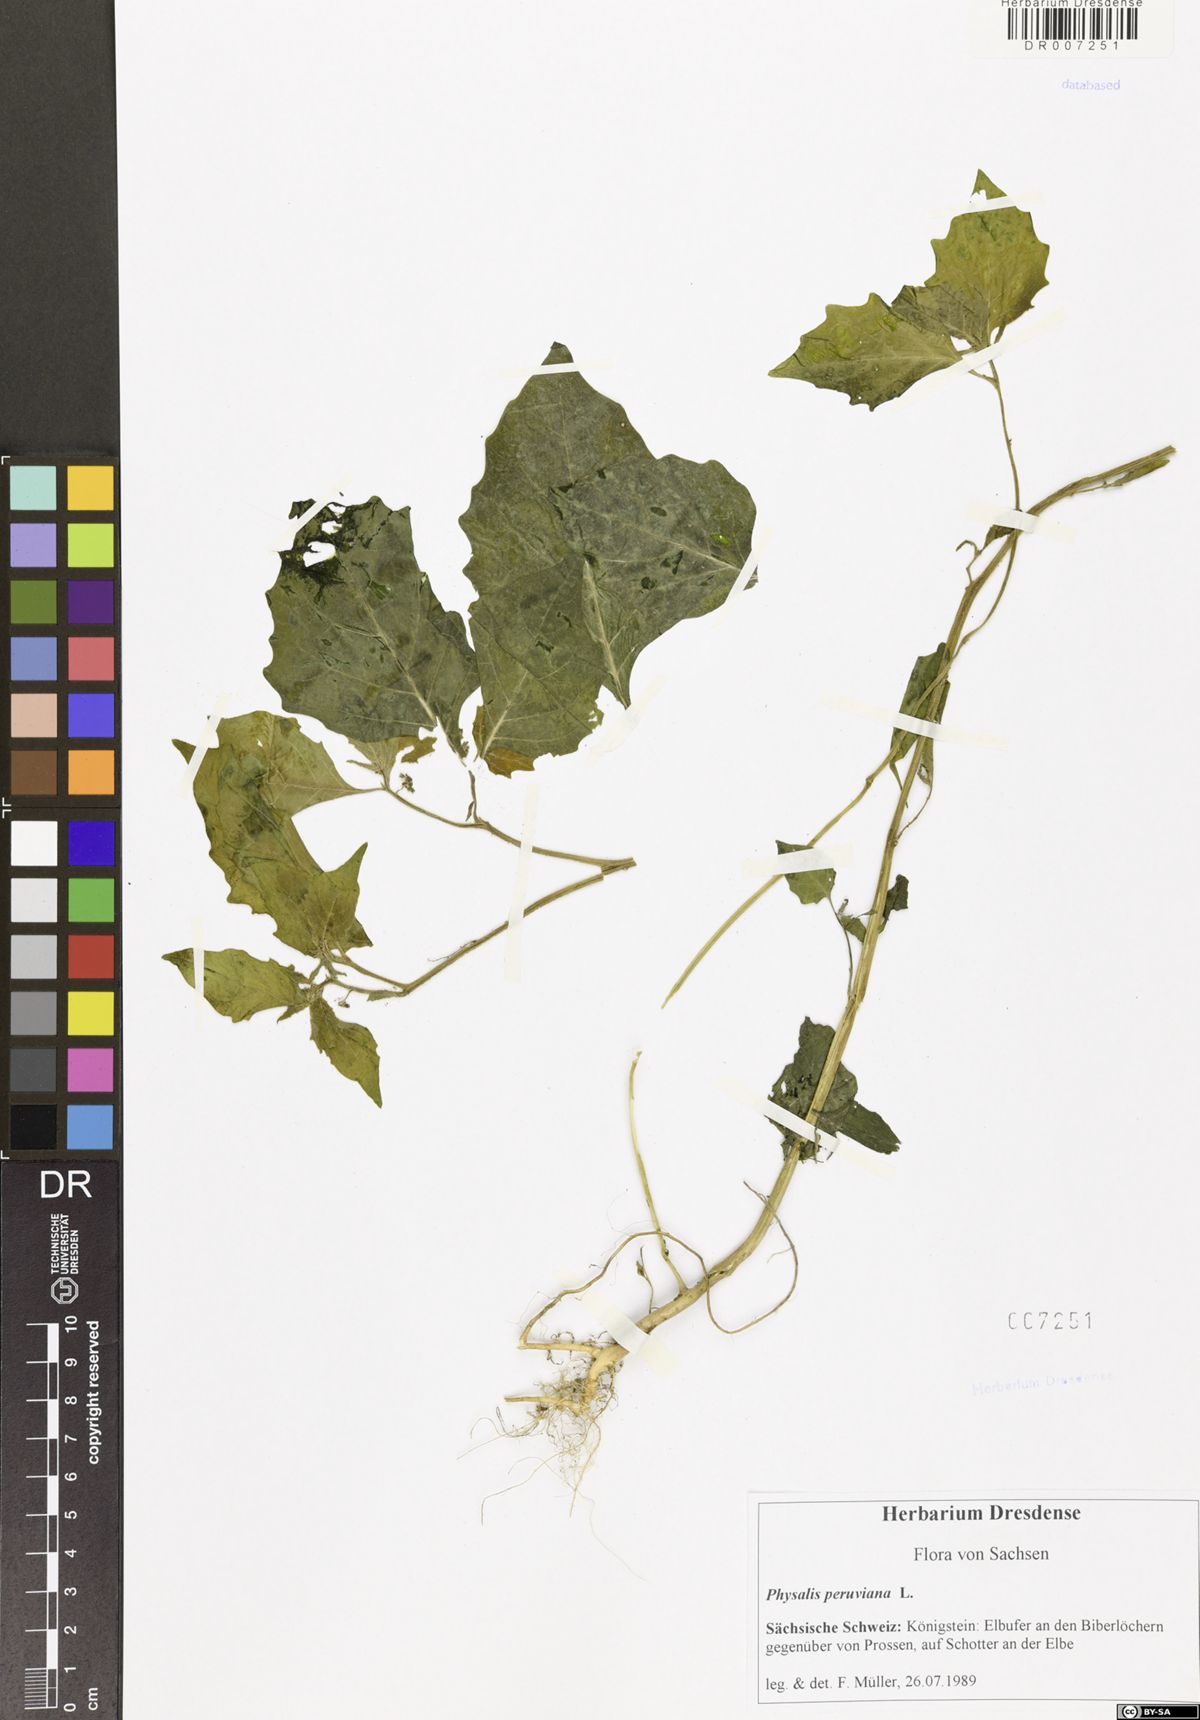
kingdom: Plantae
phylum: Tracheophyta
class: Magnoliopsida
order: Solanales
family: Solanaceae
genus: Physalis
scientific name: Physalis peruviana
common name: Cape-gooseberry
